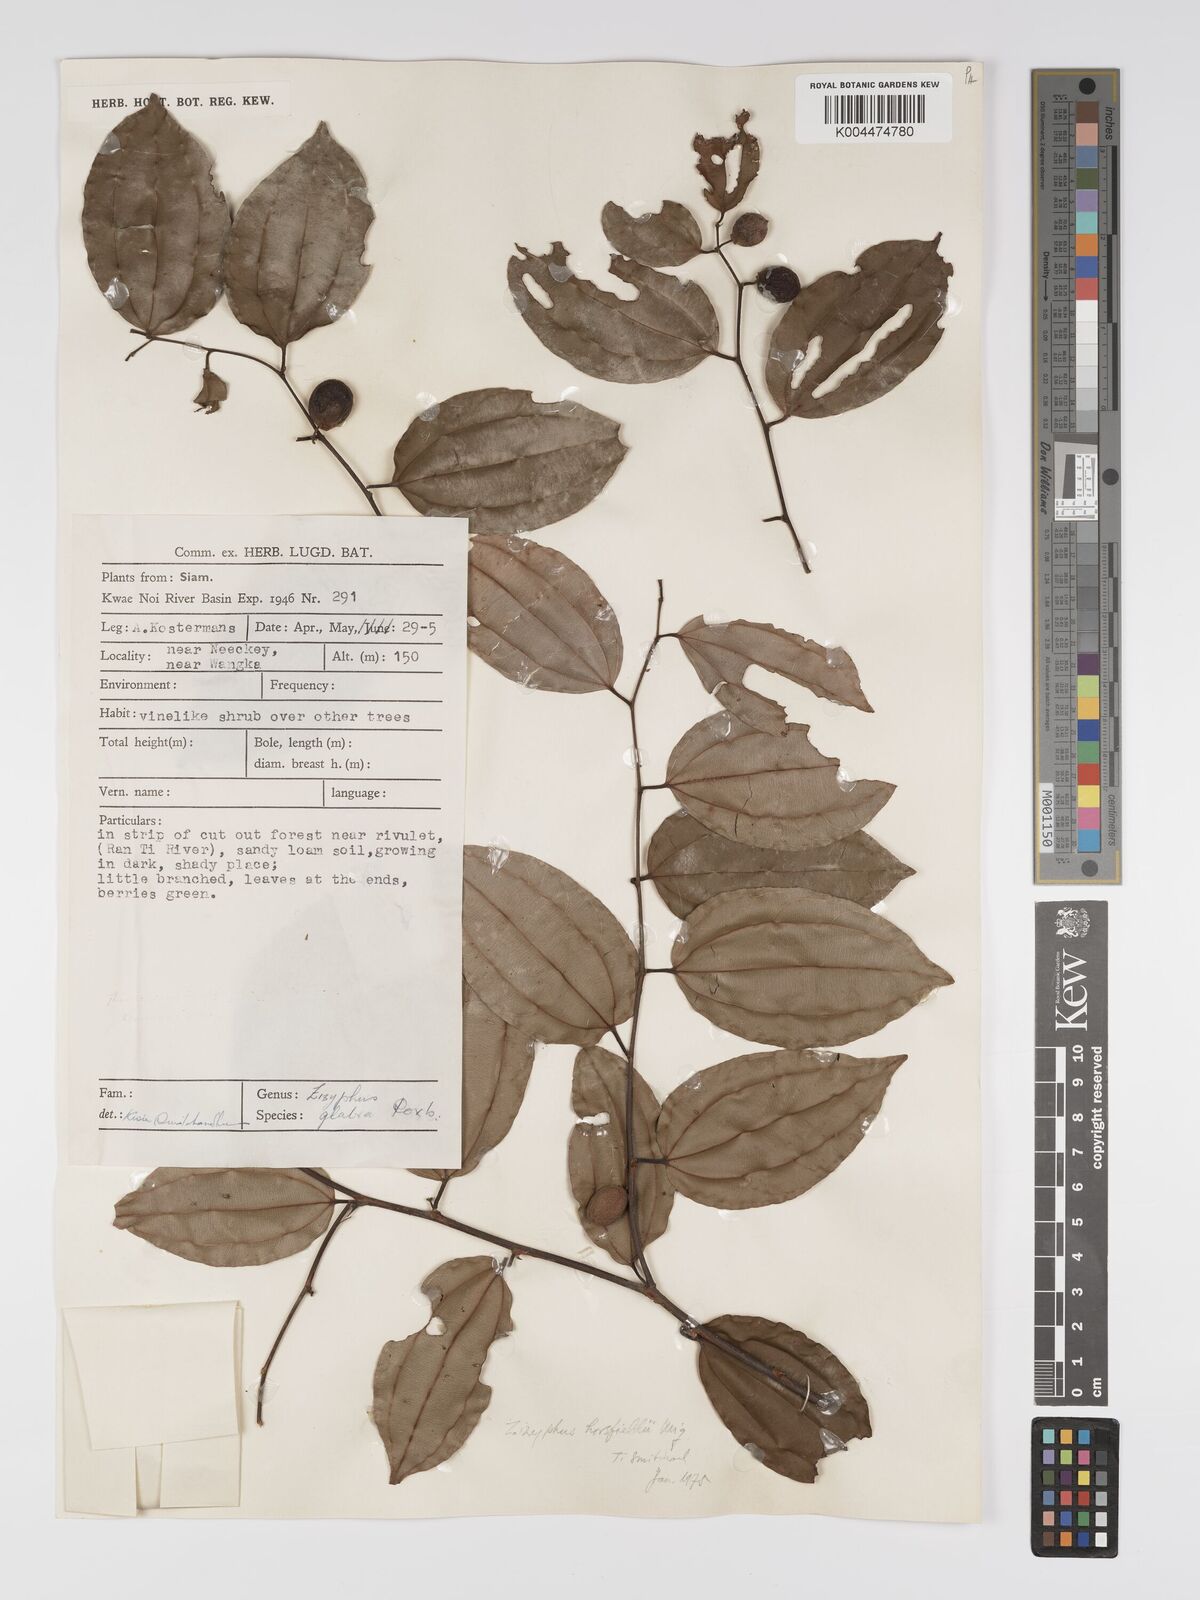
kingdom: Plantae
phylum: Tracheophyta
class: Magnoliopsida
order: Rosales
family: Rhamnaceae
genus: Ziziphus
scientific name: Ziziphus rugosa
